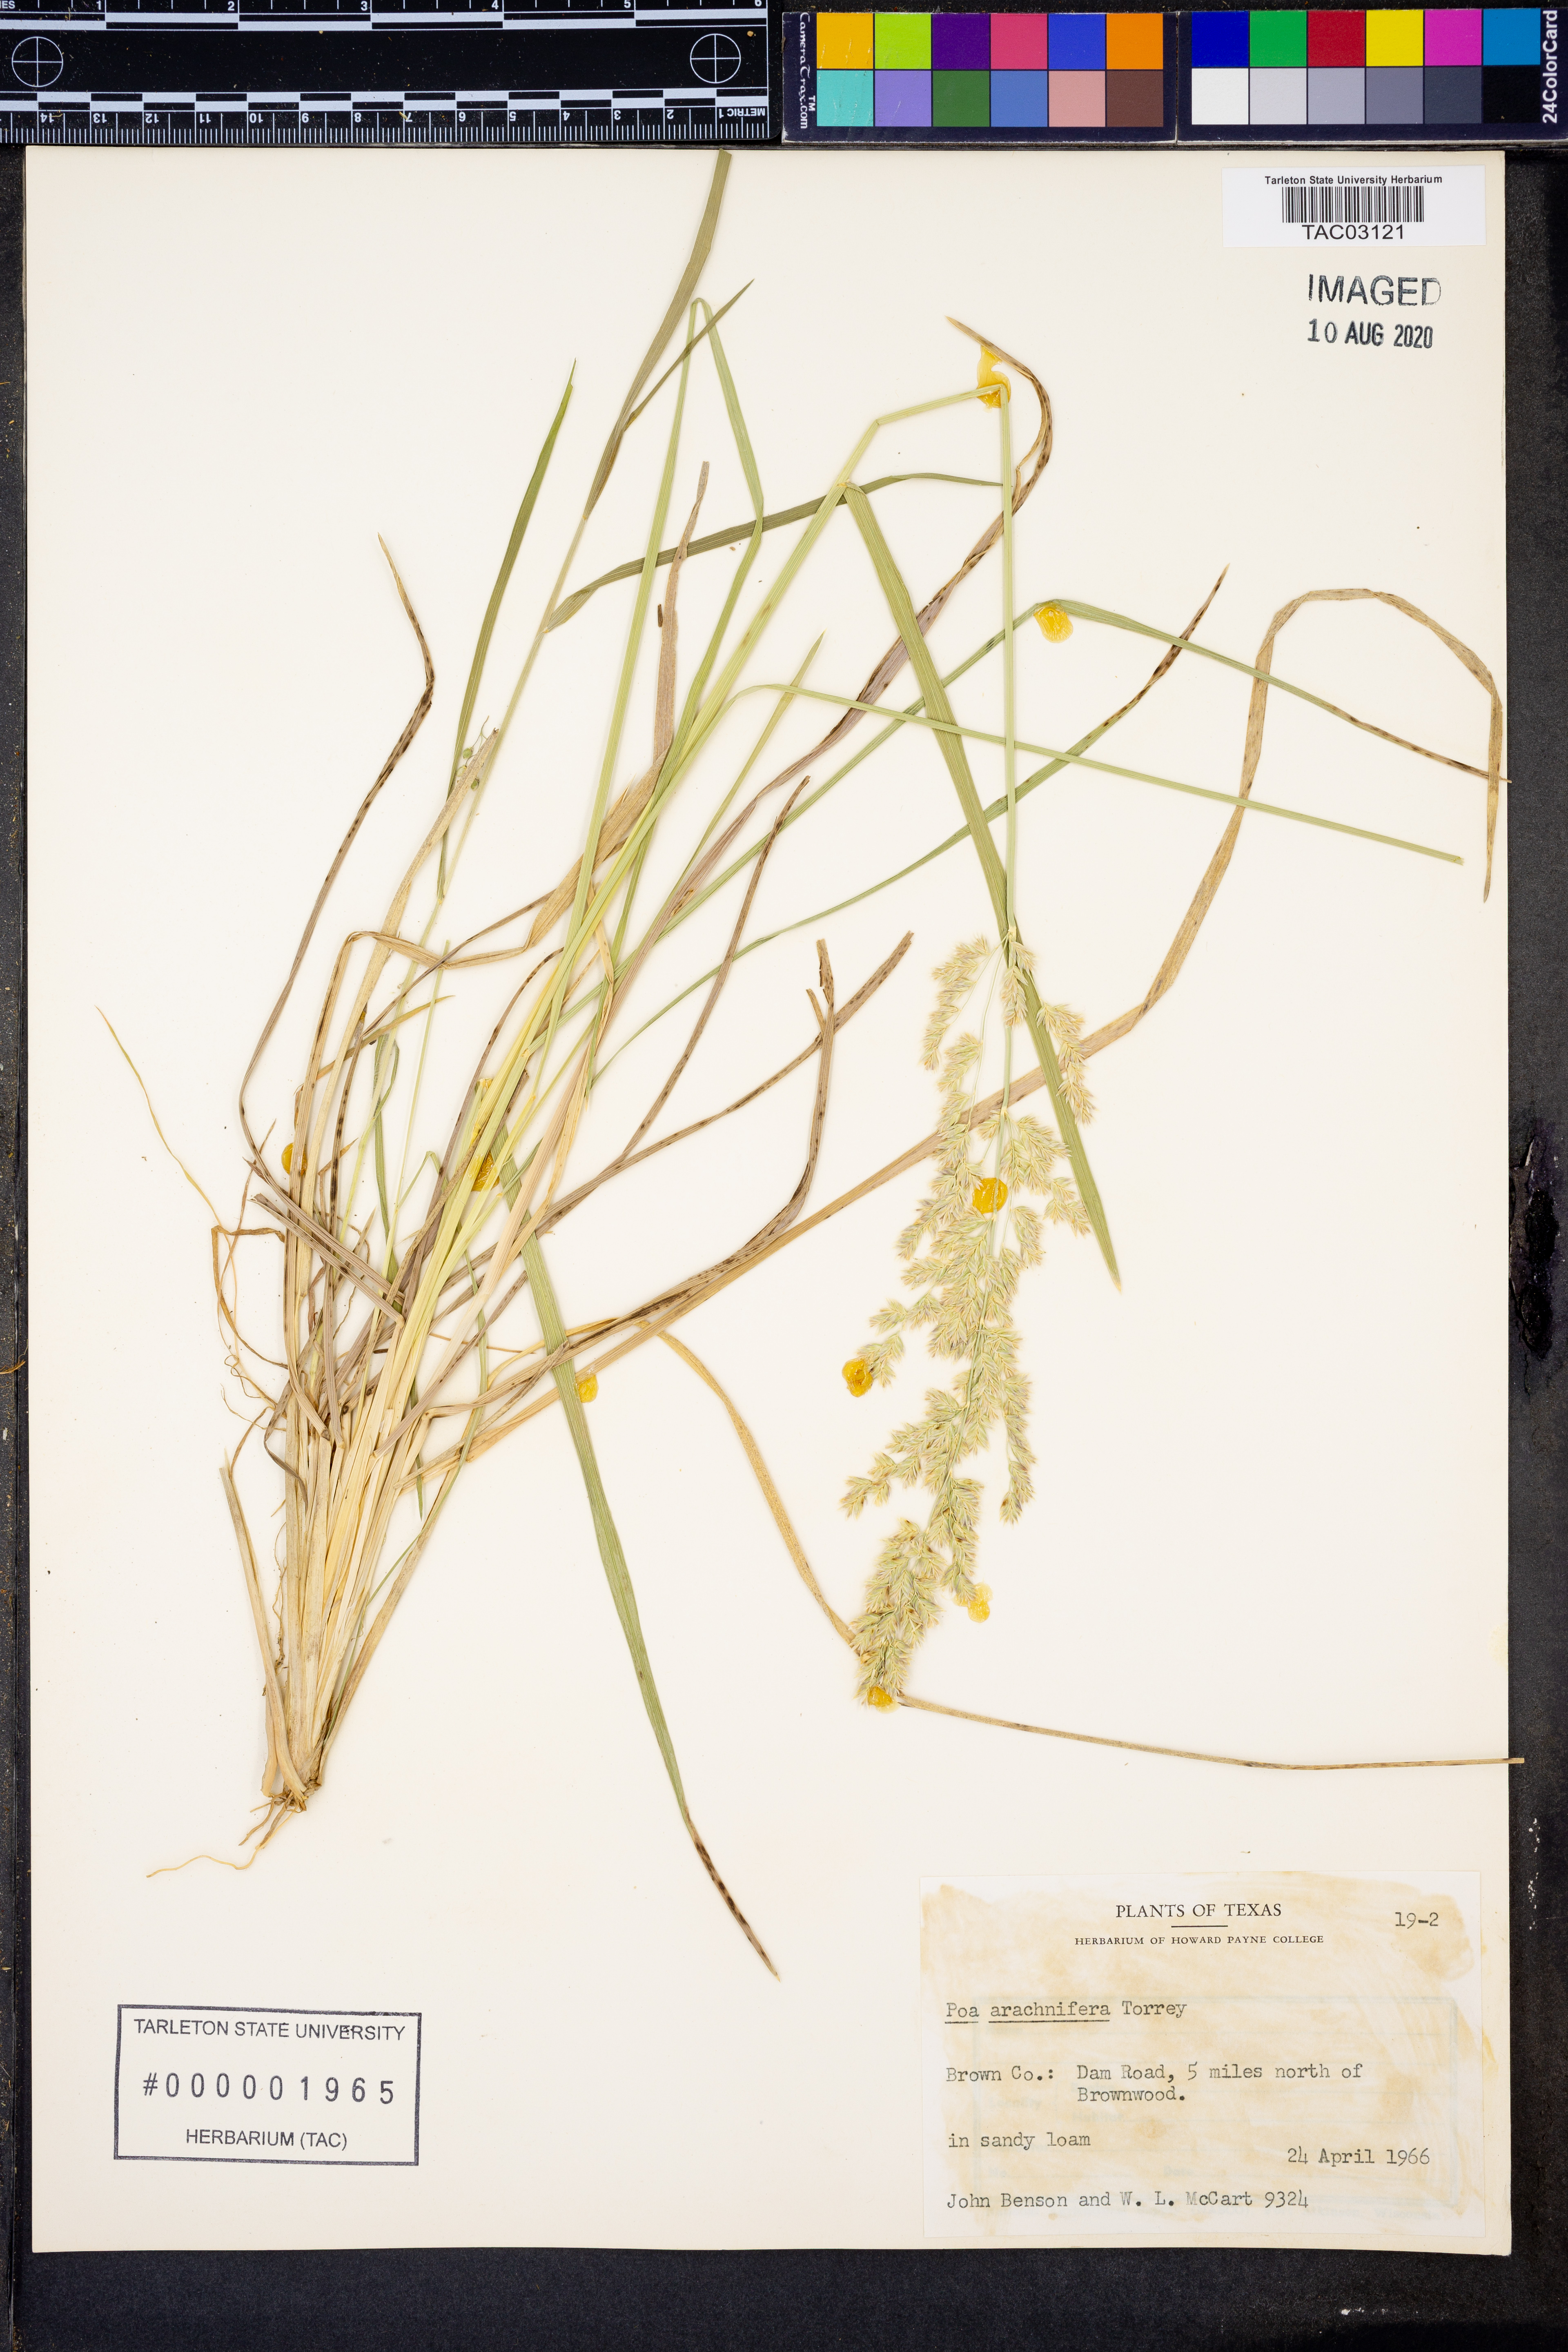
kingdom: Plantae
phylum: Tracheophyta
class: Liliopsida
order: Poales
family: Poaceae
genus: Poa
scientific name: Poa arachnifera
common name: Texas bluegrass
